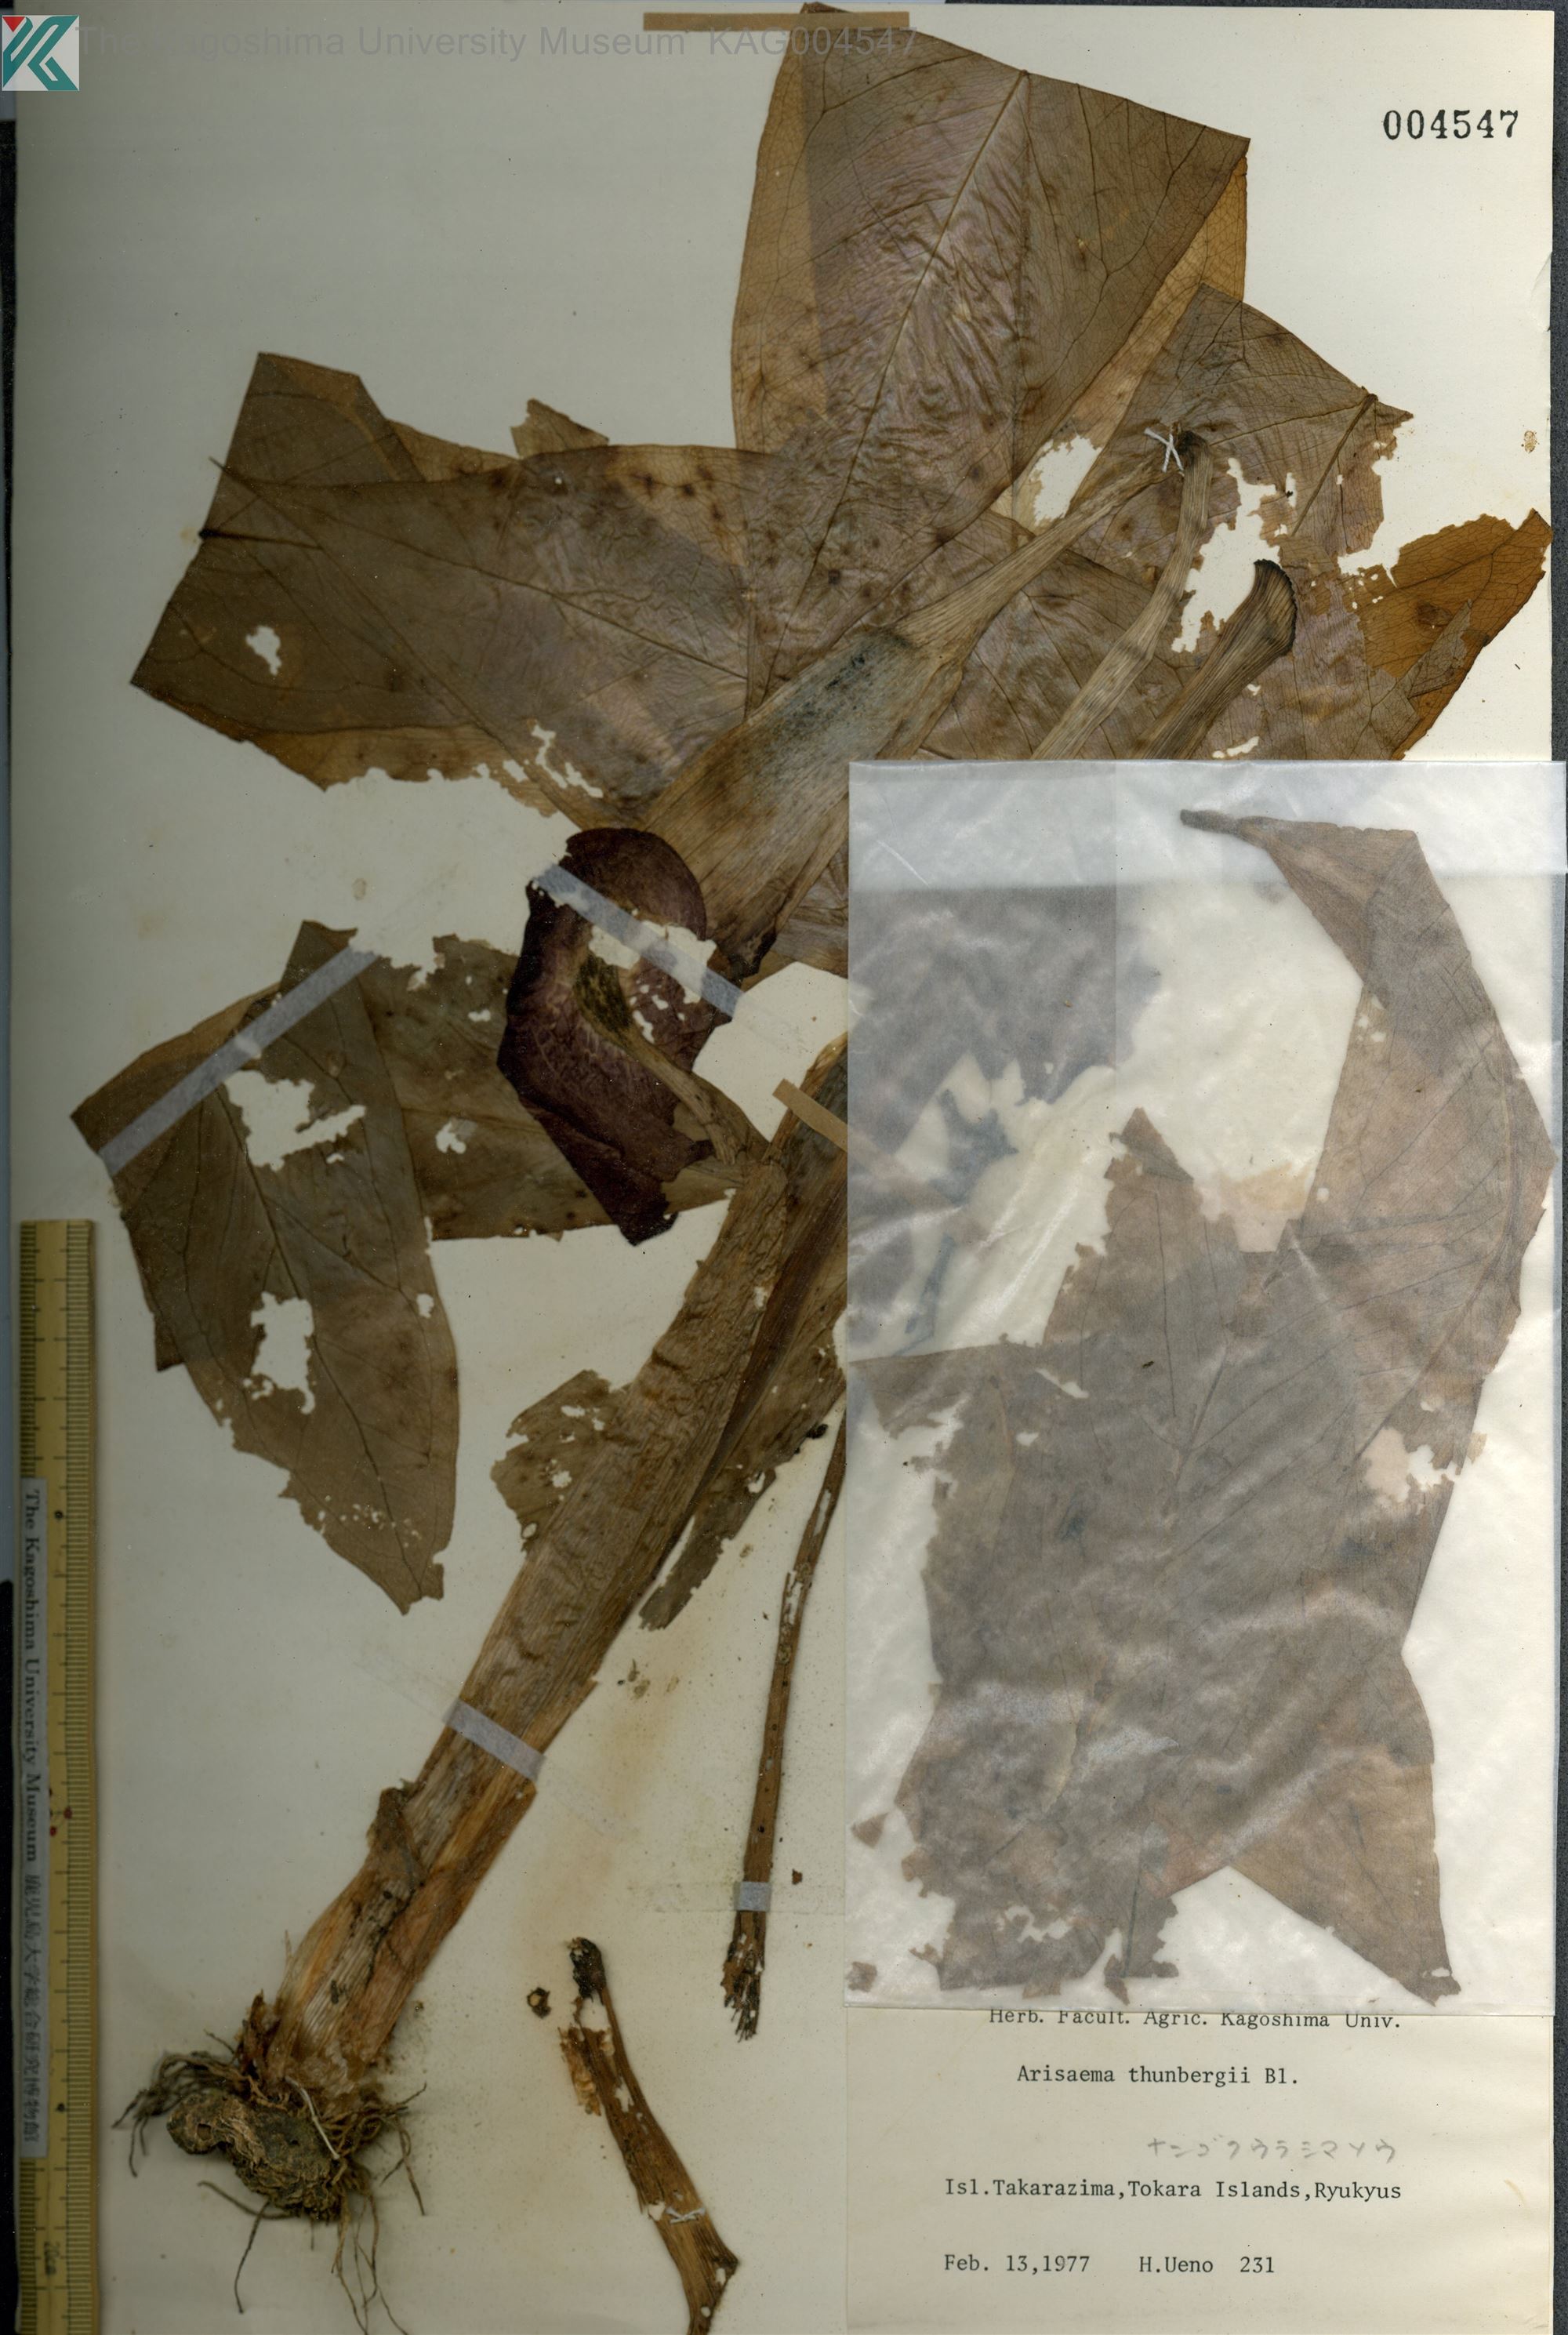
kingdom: Plantae
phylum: Tracheophyta
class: Liliopsida
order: Alismatales
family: Araceae
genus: Arisaema
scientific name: Arisaema thunbergii
